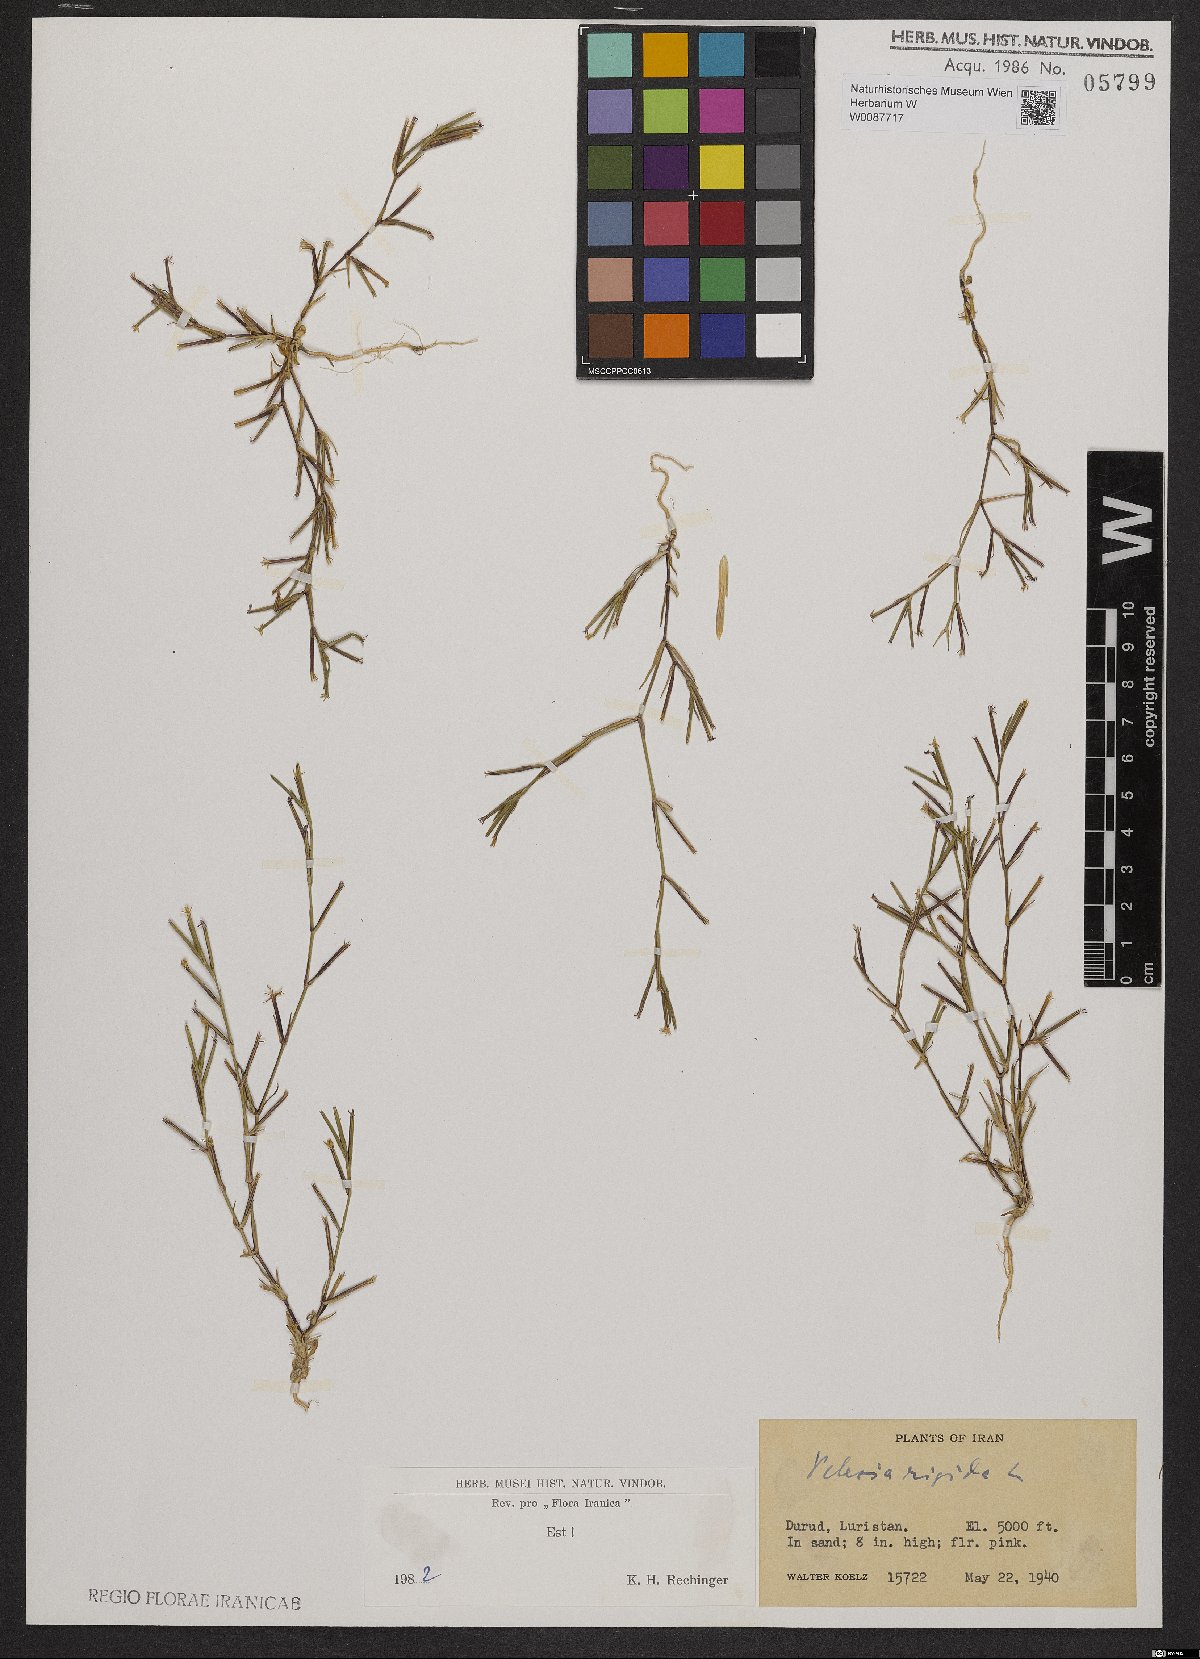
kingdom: Plantae
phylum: Tracheophyta
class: Magnoliopsida
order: Caryophyllales
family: Caryophyllaceae
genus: Dianthus
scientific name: Dianthus nudiflorus
